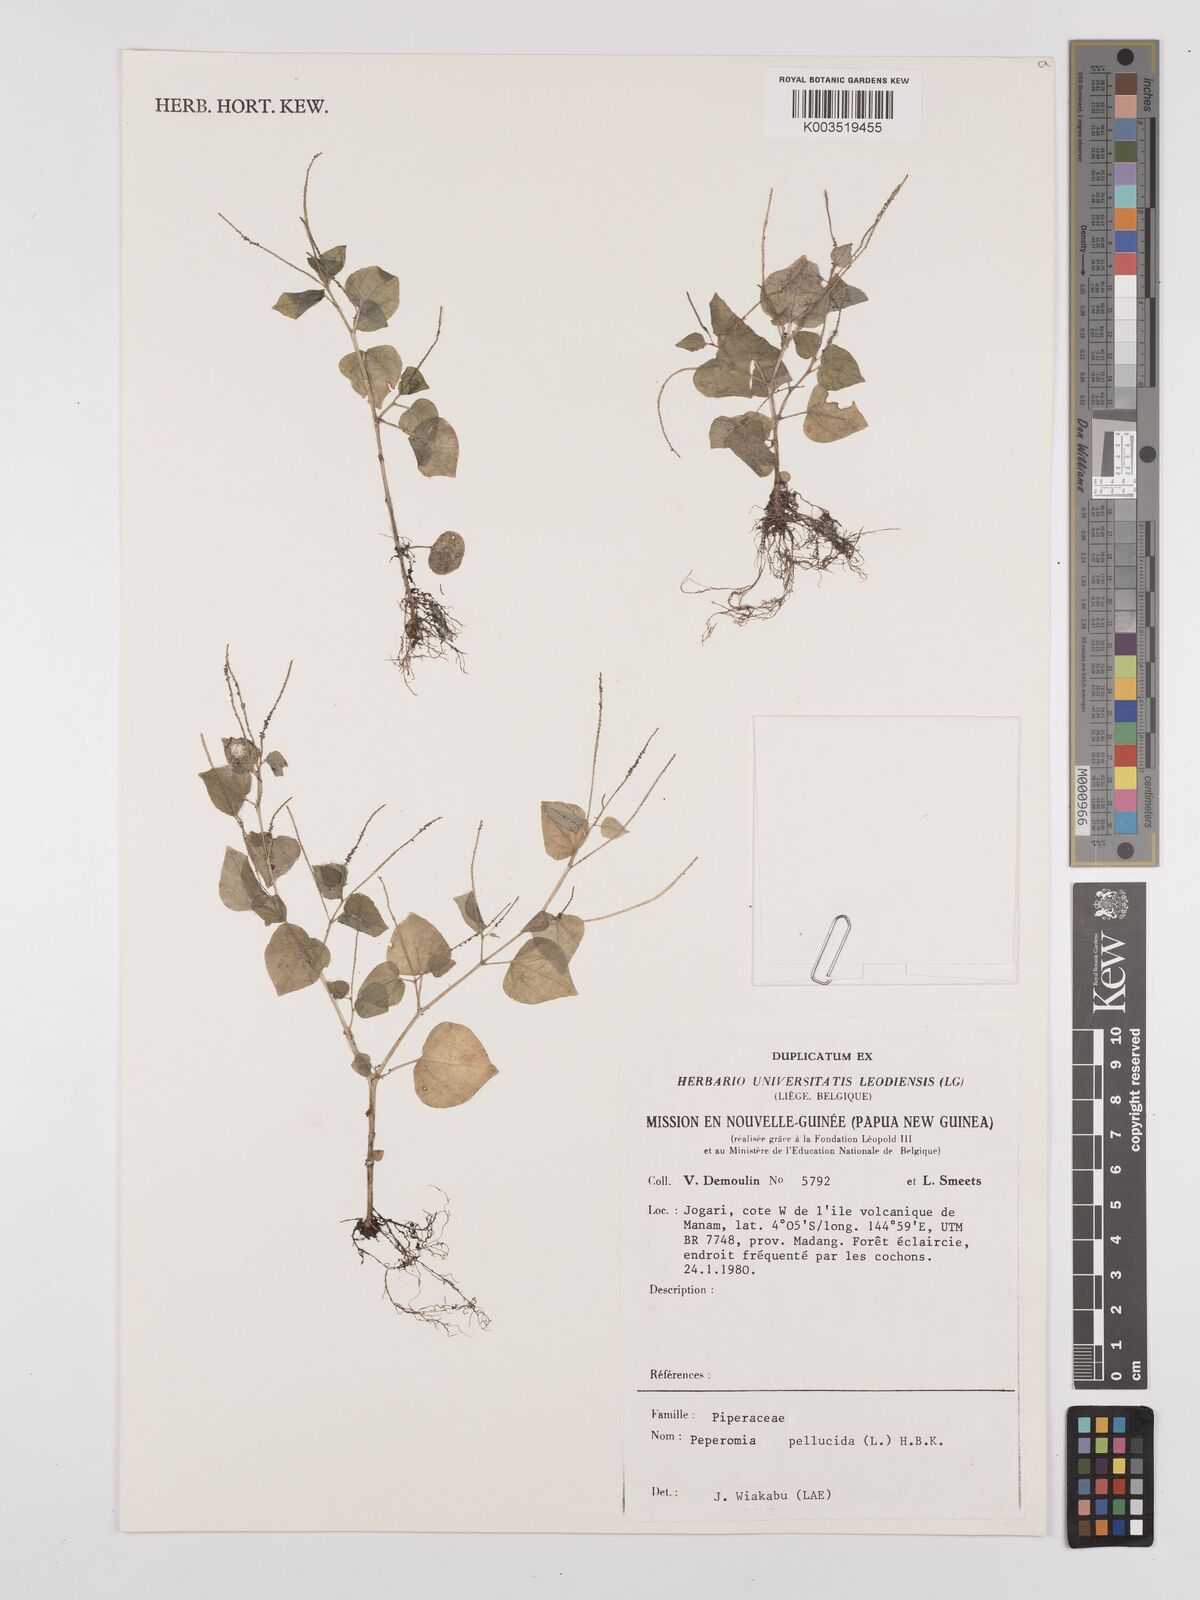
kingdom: Plantae
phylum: Tracheophyta
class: Magnoliopsida
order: Piperales
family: Piperaceae
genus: Peperomia
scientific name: Peperomia pellucida
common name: Man to man
